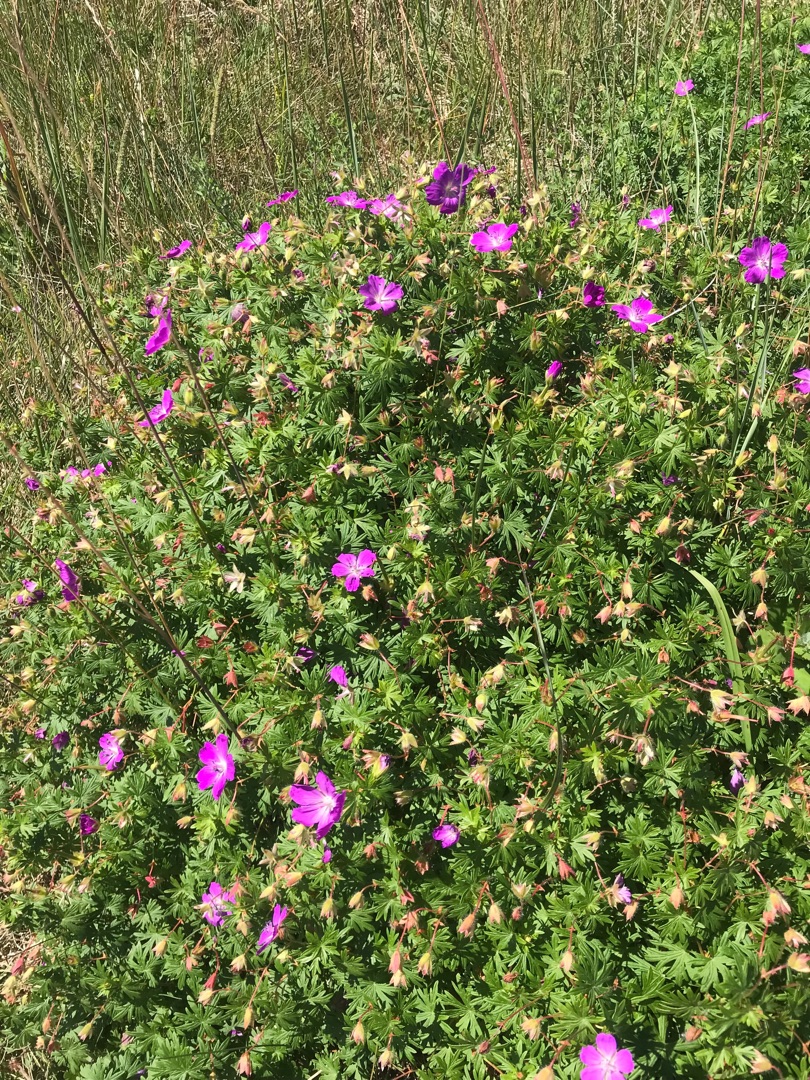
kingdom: Plantae
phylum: Tracheophyta
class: Magnoliopsida
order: Geraniales
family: Geraniaceae
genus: Geranium
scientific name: Geranium sanguineum
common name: Blodrød storkenæb
